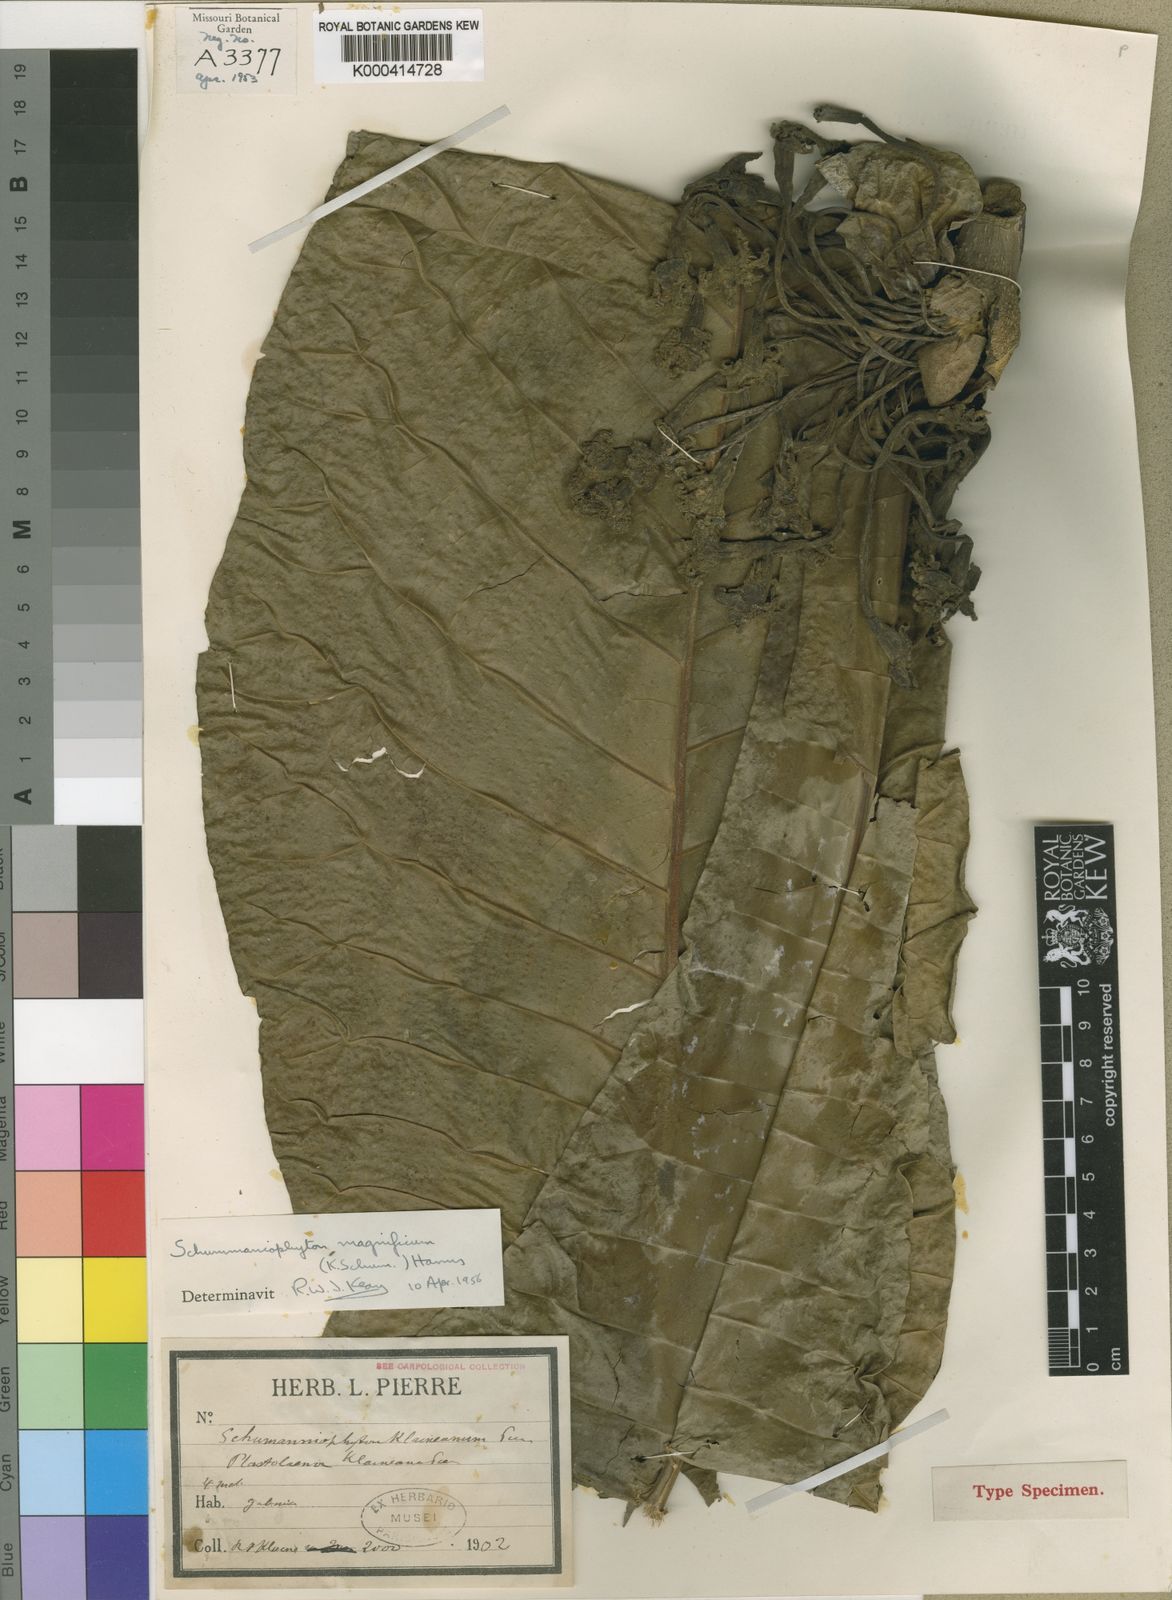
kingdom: Plantae
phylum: Tracheophyta
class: Magnoliopsida
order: Gentianales
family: Rubiaceae
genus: Schumanniophyton
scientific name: Schumanniophyton magnificum
